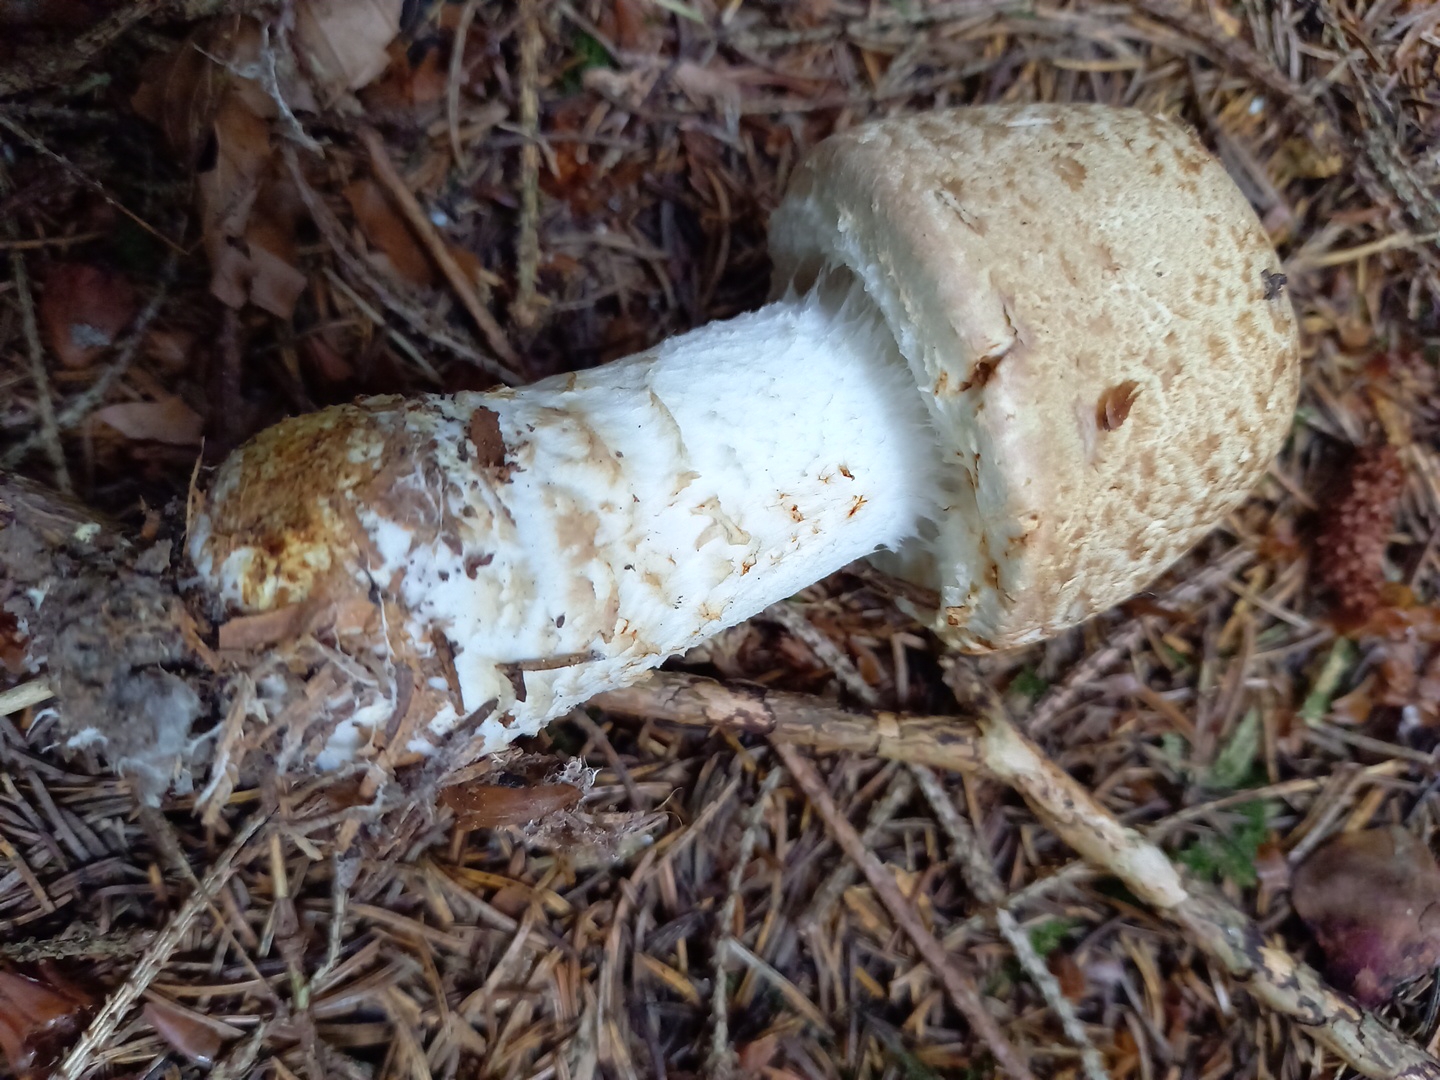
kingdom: Fungi
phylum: Basidiomycota
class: Agaricomycetes
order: Agaricales
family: Agaricaceae
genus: Agaricus
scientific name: Agaricus augustus
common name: prægtig champignon
